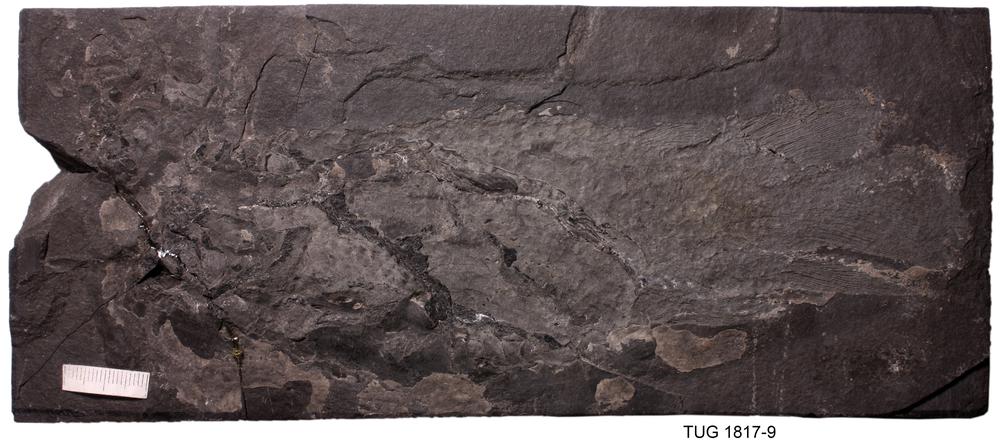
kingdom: Animalia
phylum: Chordata
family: Dipteridae
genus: Dipterus
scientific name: Dipterus valenciennesi
